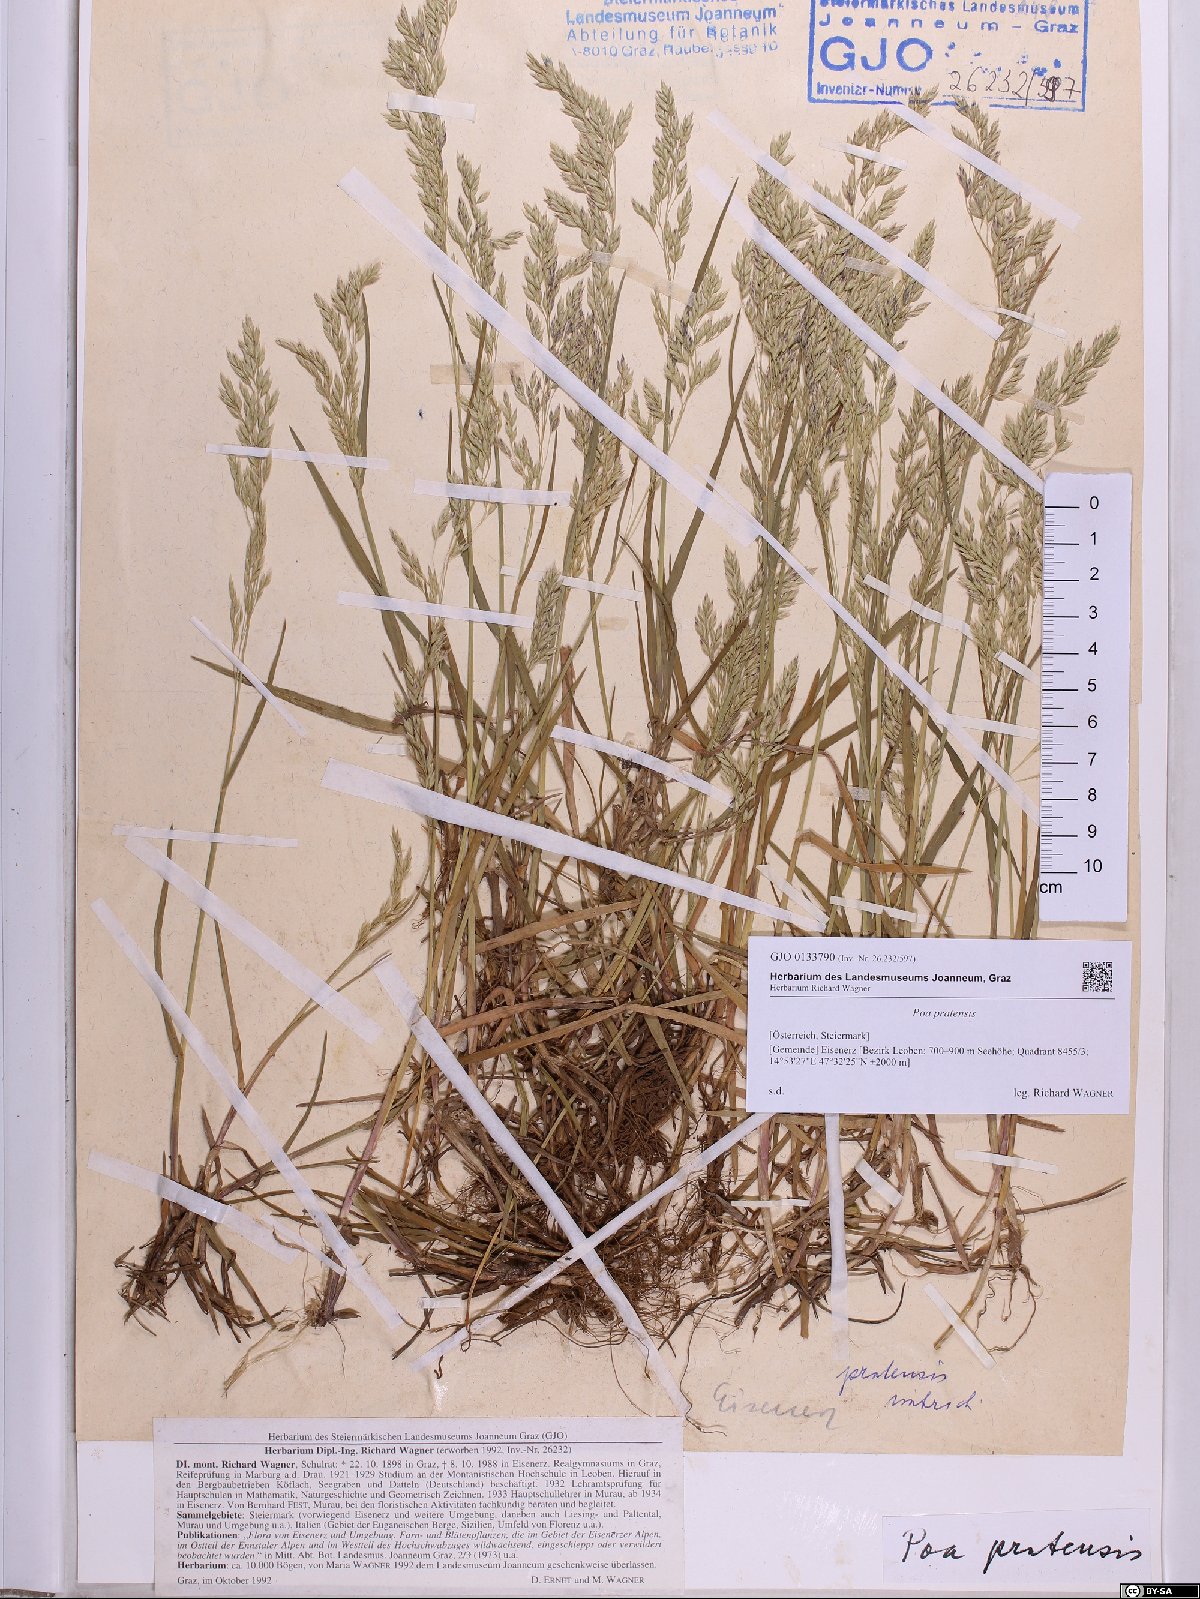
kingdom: Plantae
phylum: Tracheophyta
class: Liliopsida
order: Poales
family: Poaceae
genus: Poa
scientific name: Poa pratensis
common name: Kentucky bluegrass
